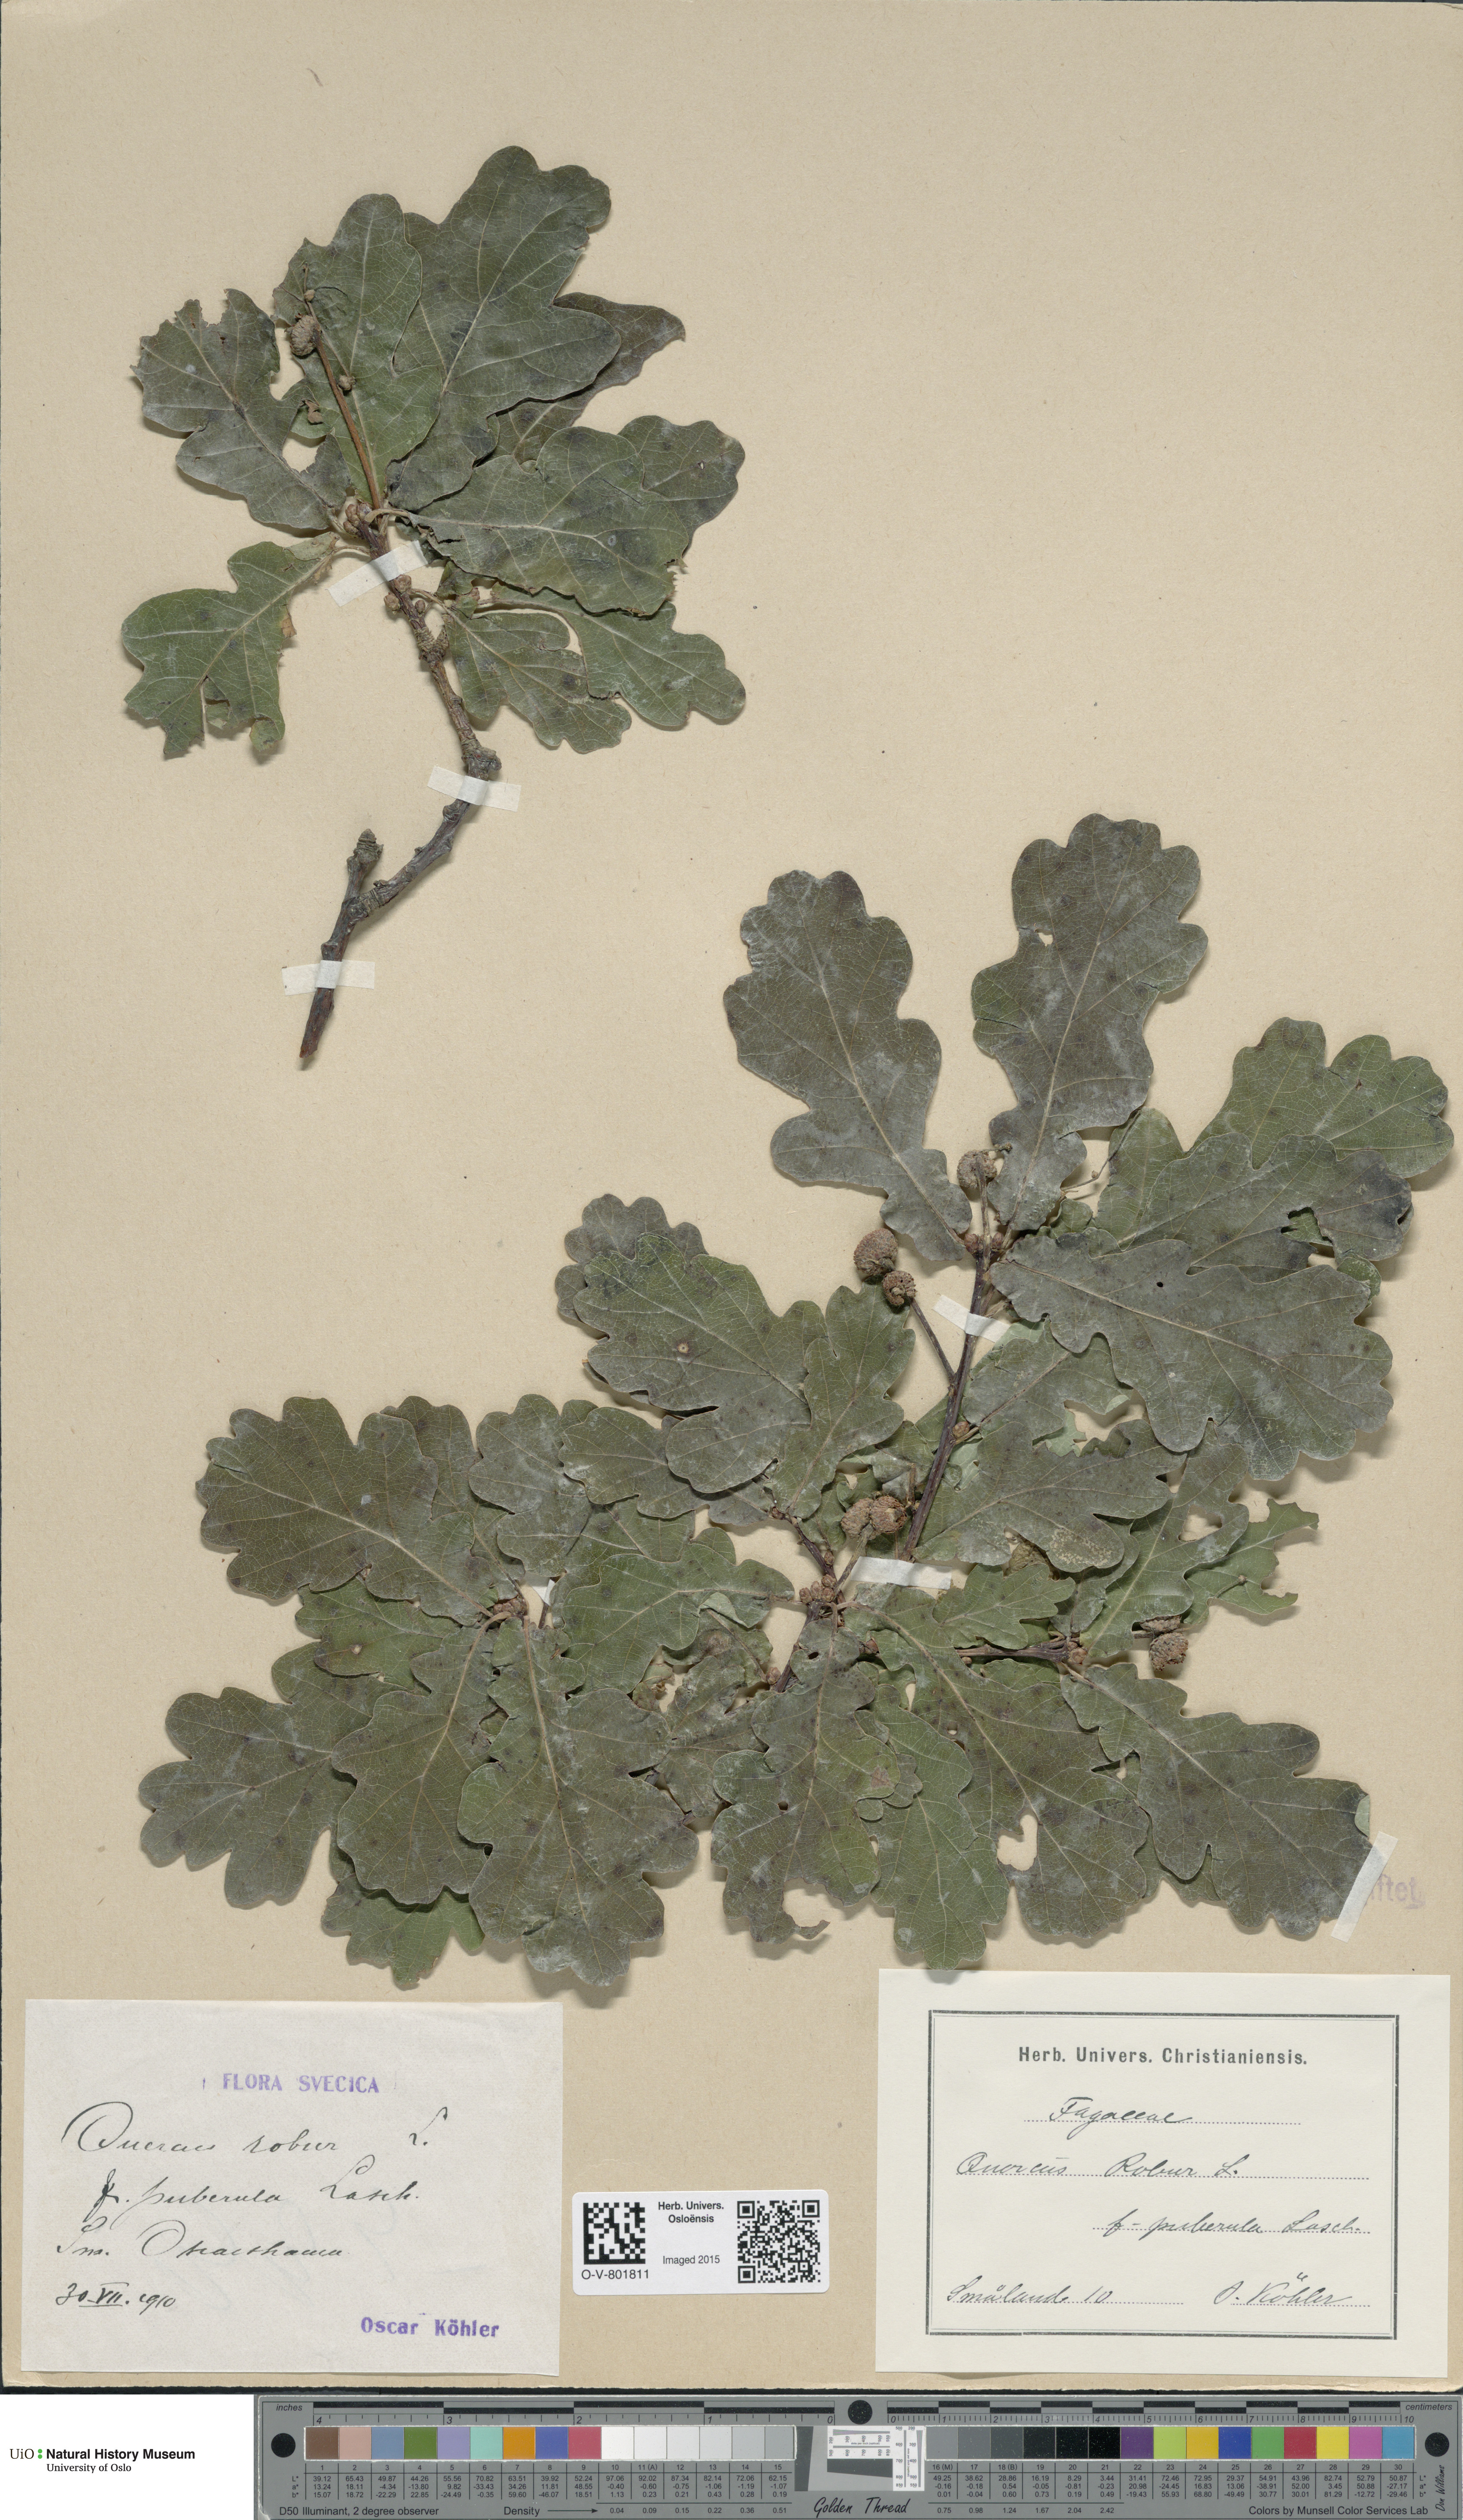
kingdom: Plantae
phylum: Tracheophyta
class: Magnoliopsida
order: Fagales
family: Fagaceae
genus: Quercus
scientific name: Quercus robur
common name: Pedunculate oak
